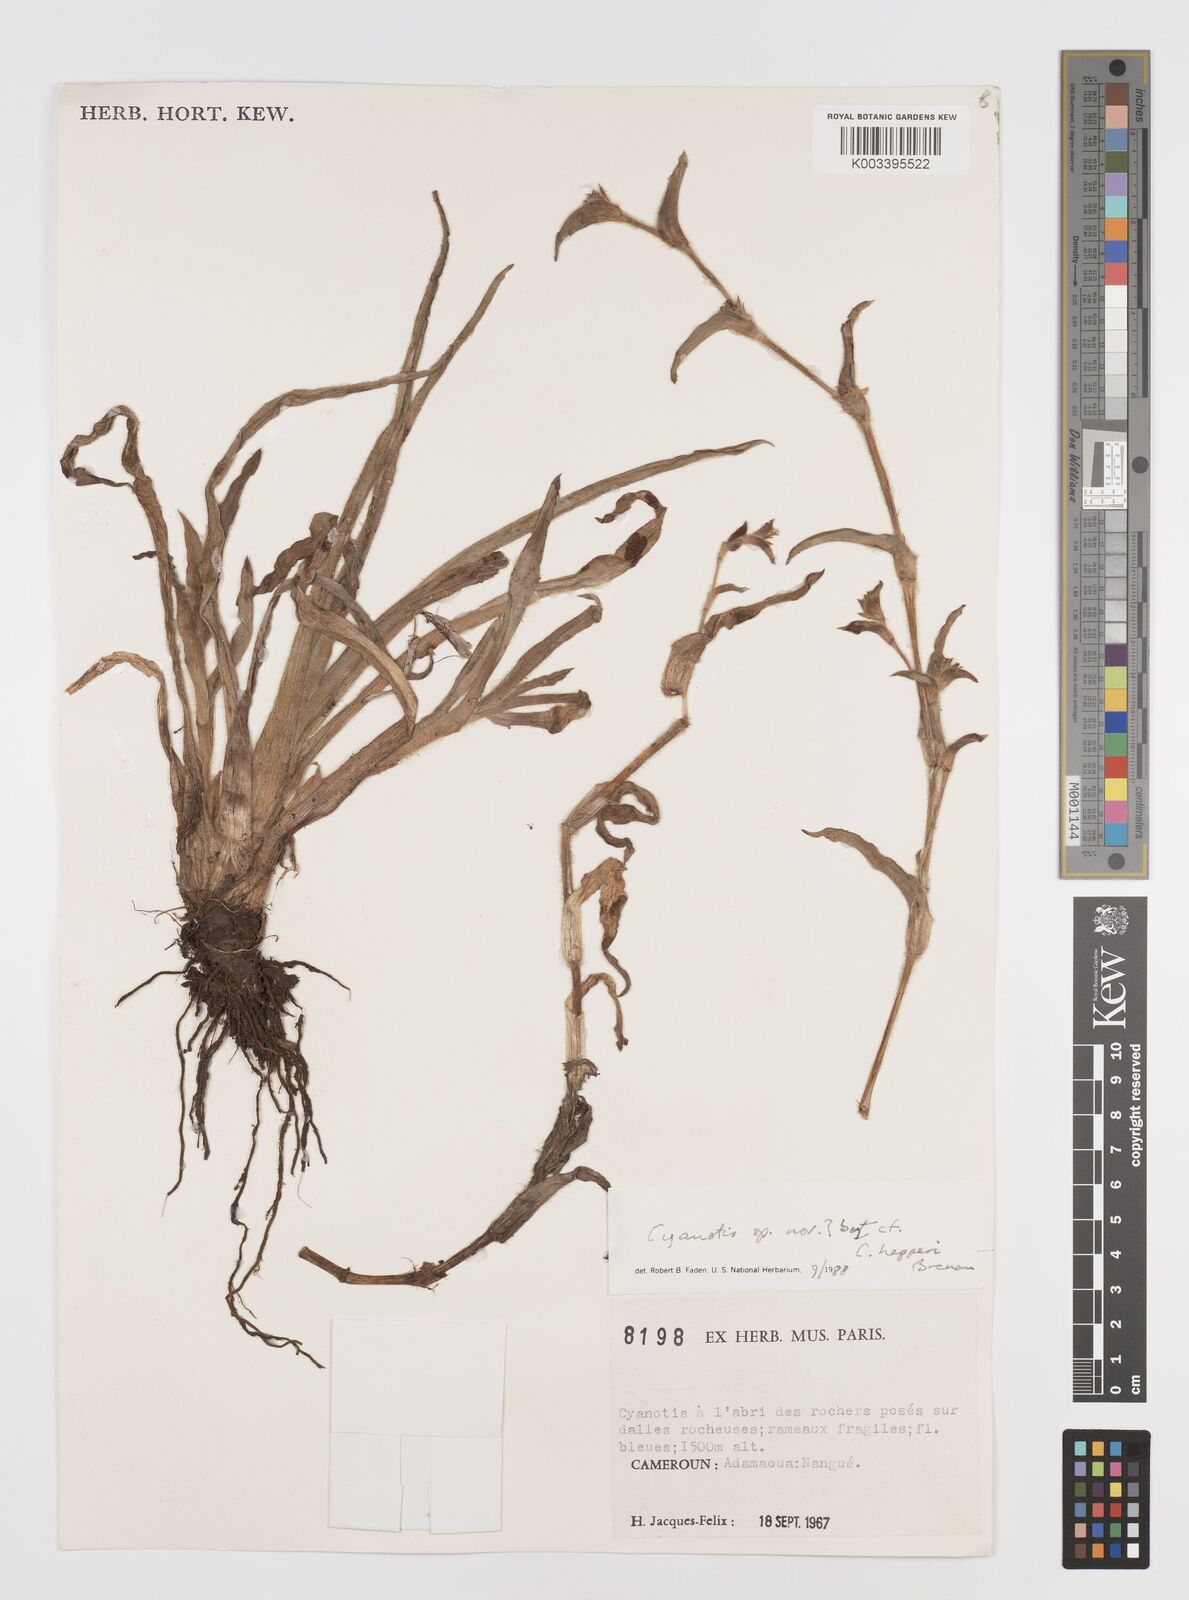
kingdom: Plantae
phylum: Tracheophyta
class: Liliopsida
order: Commelinales
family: Commelinaceae
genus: Cyanotis
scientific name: Cyanotis
